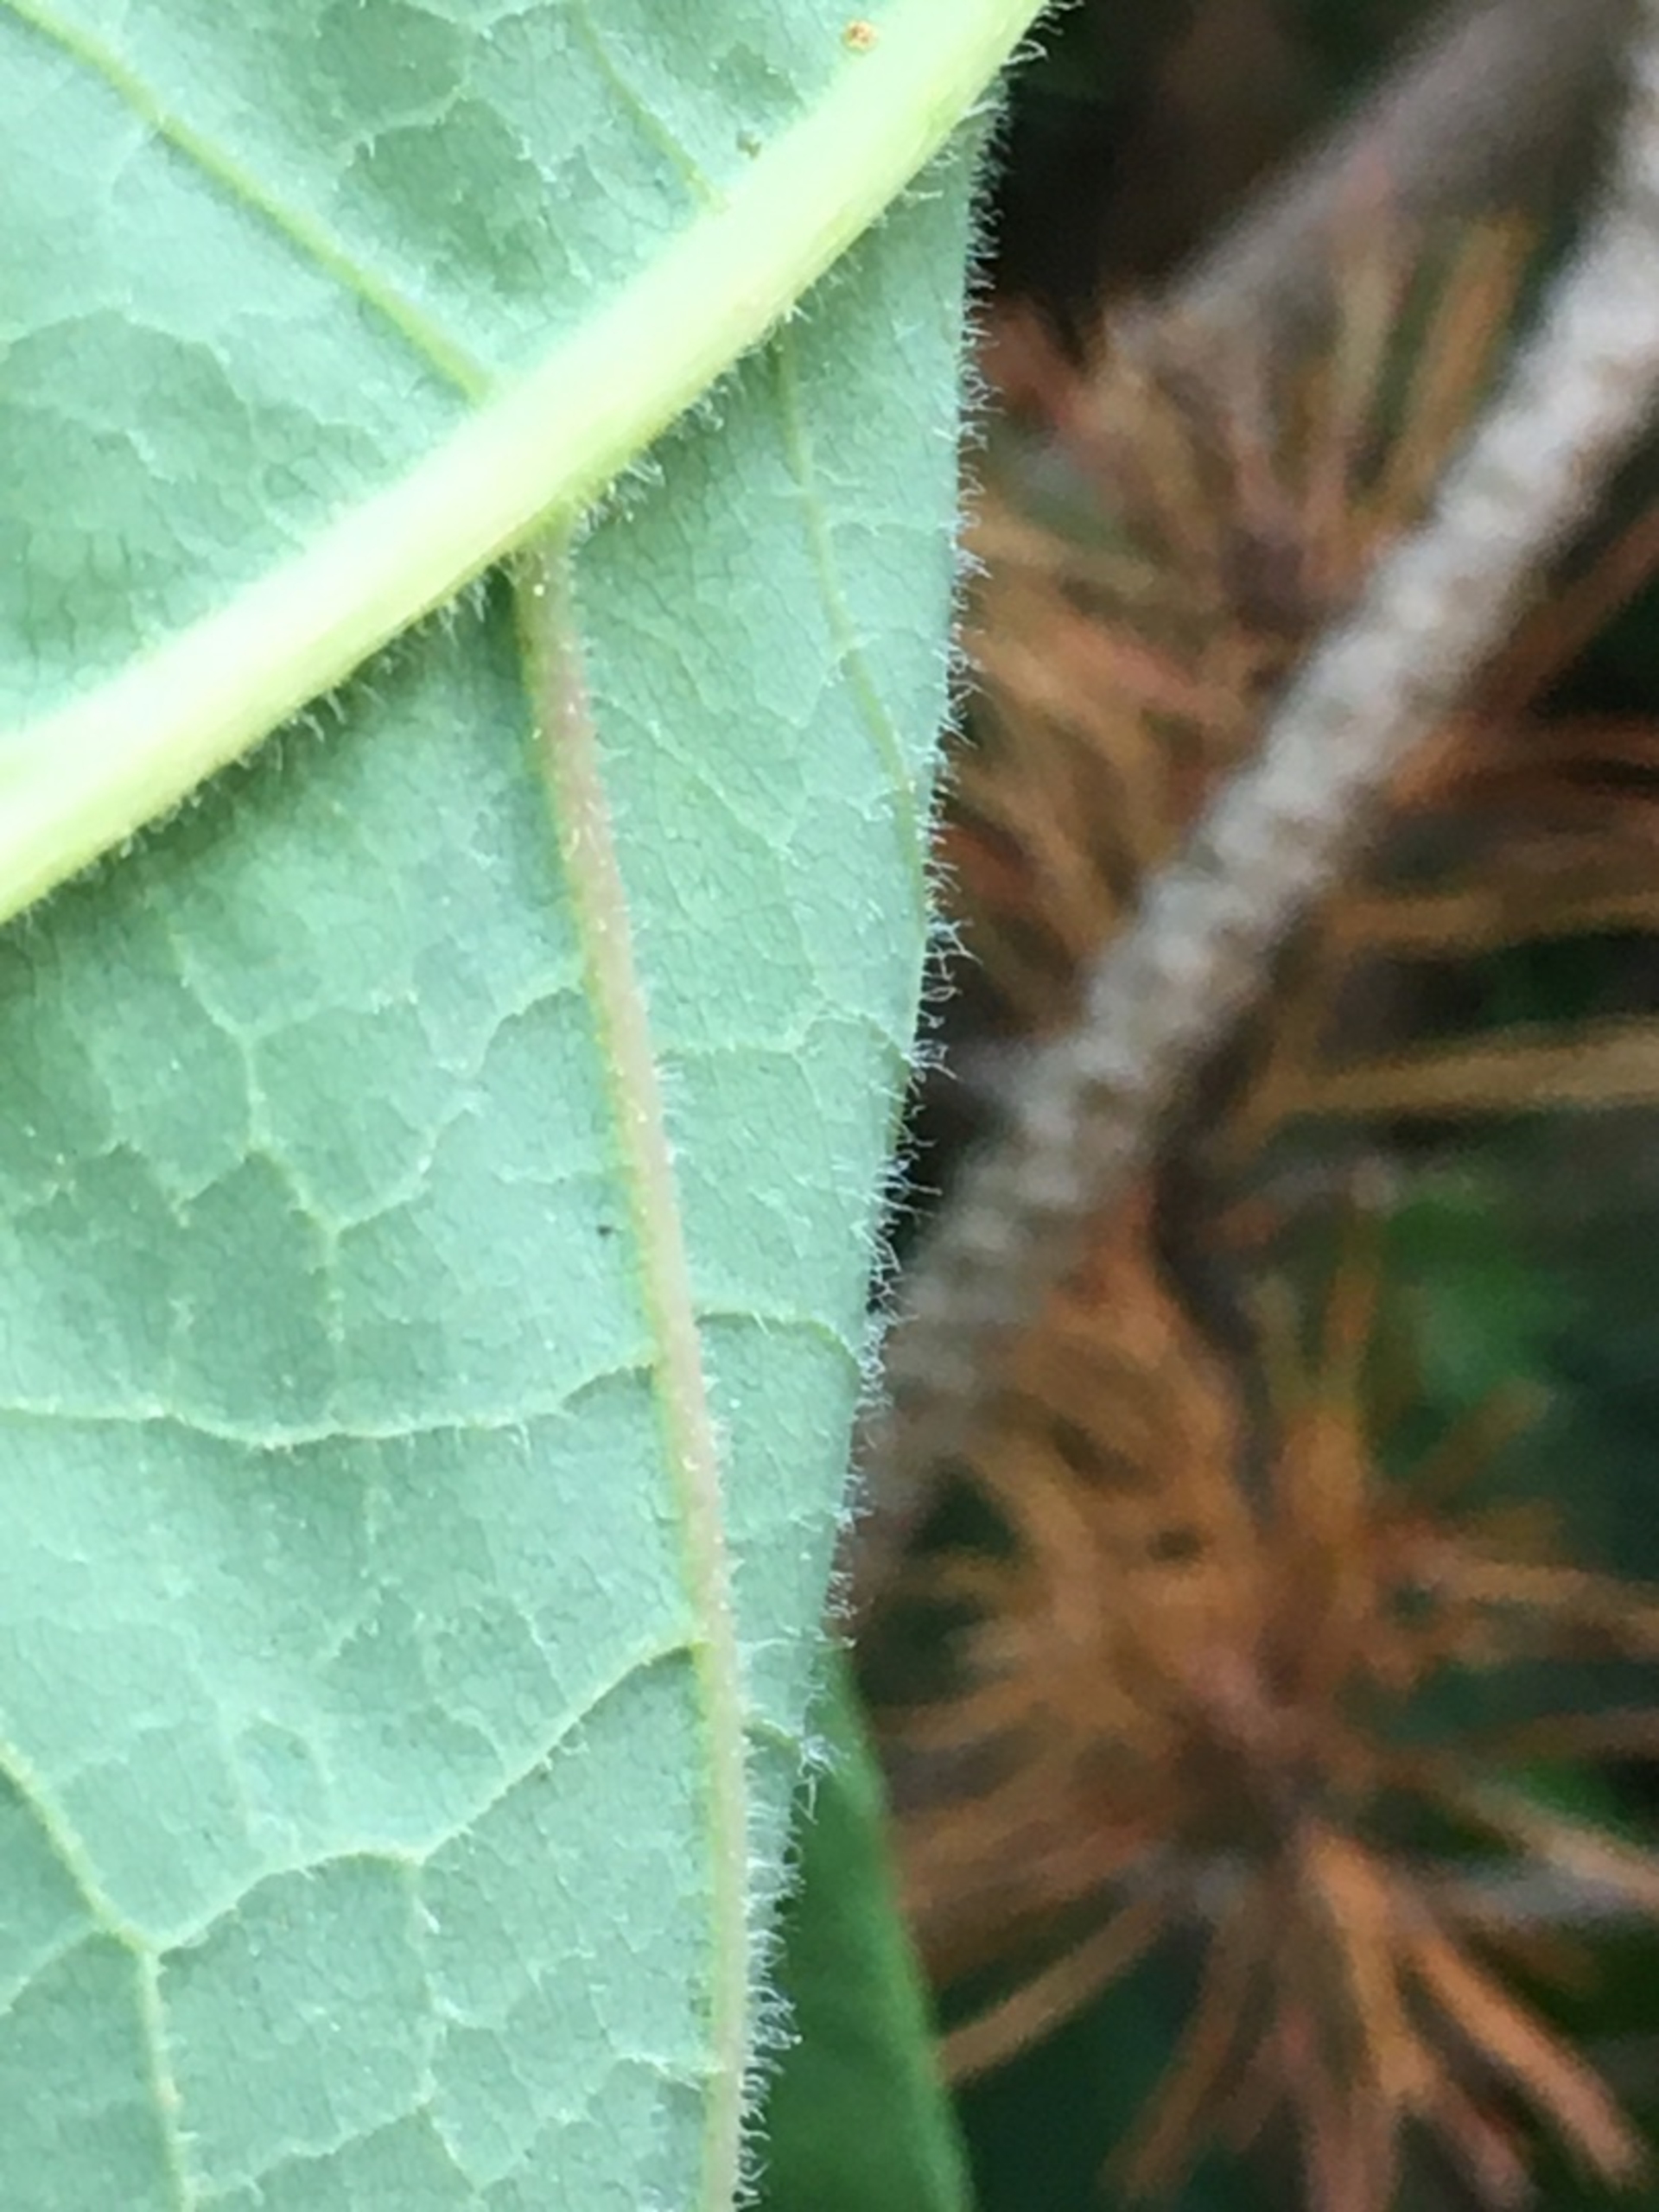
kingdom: Plantae
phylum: Tracheophyta
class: Magnoliopsida
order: Caryophyllales
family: Polygonaceae
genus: Reynoutria
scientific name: Reynoutria sachalinensis
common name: Kæmpe-pileurt
